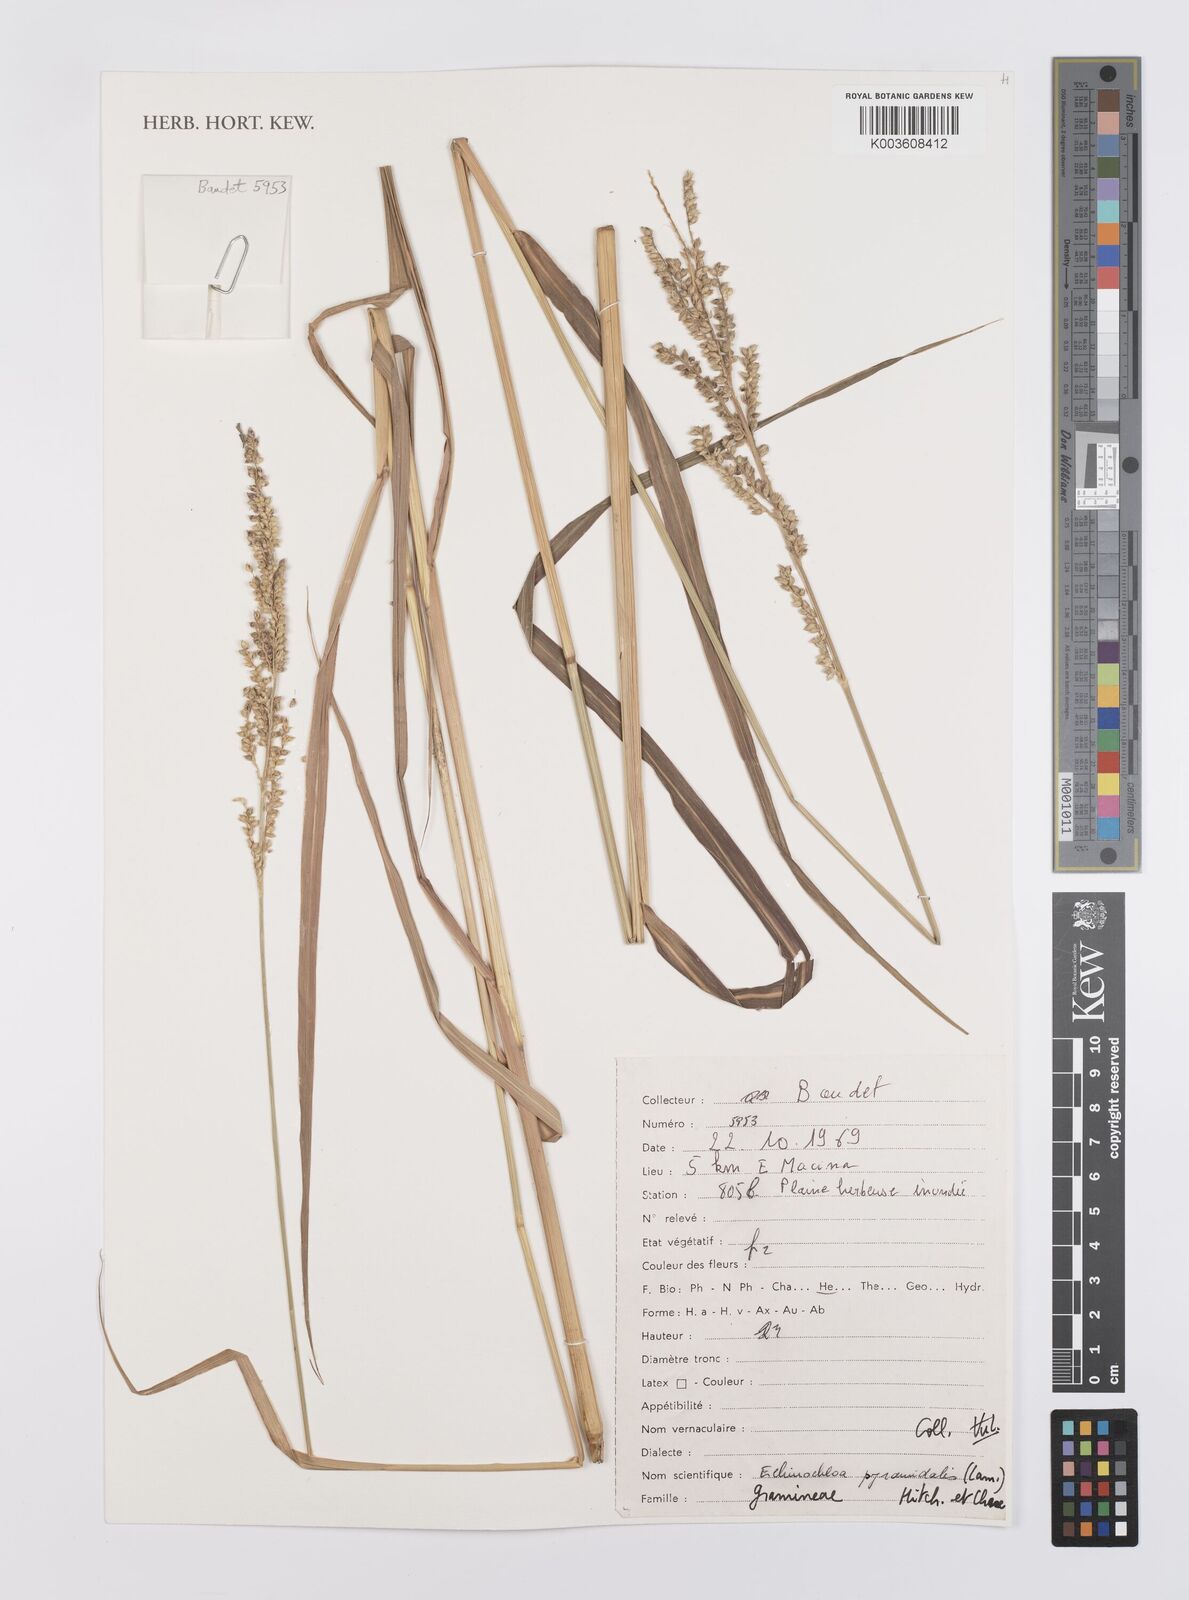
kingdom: Plantae
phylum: Tracheophyta
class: Liliopsida
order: Poales
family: Poaceae
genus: Echinochloa
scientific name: Echinochloa pyramidalis
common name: Antelope grass
